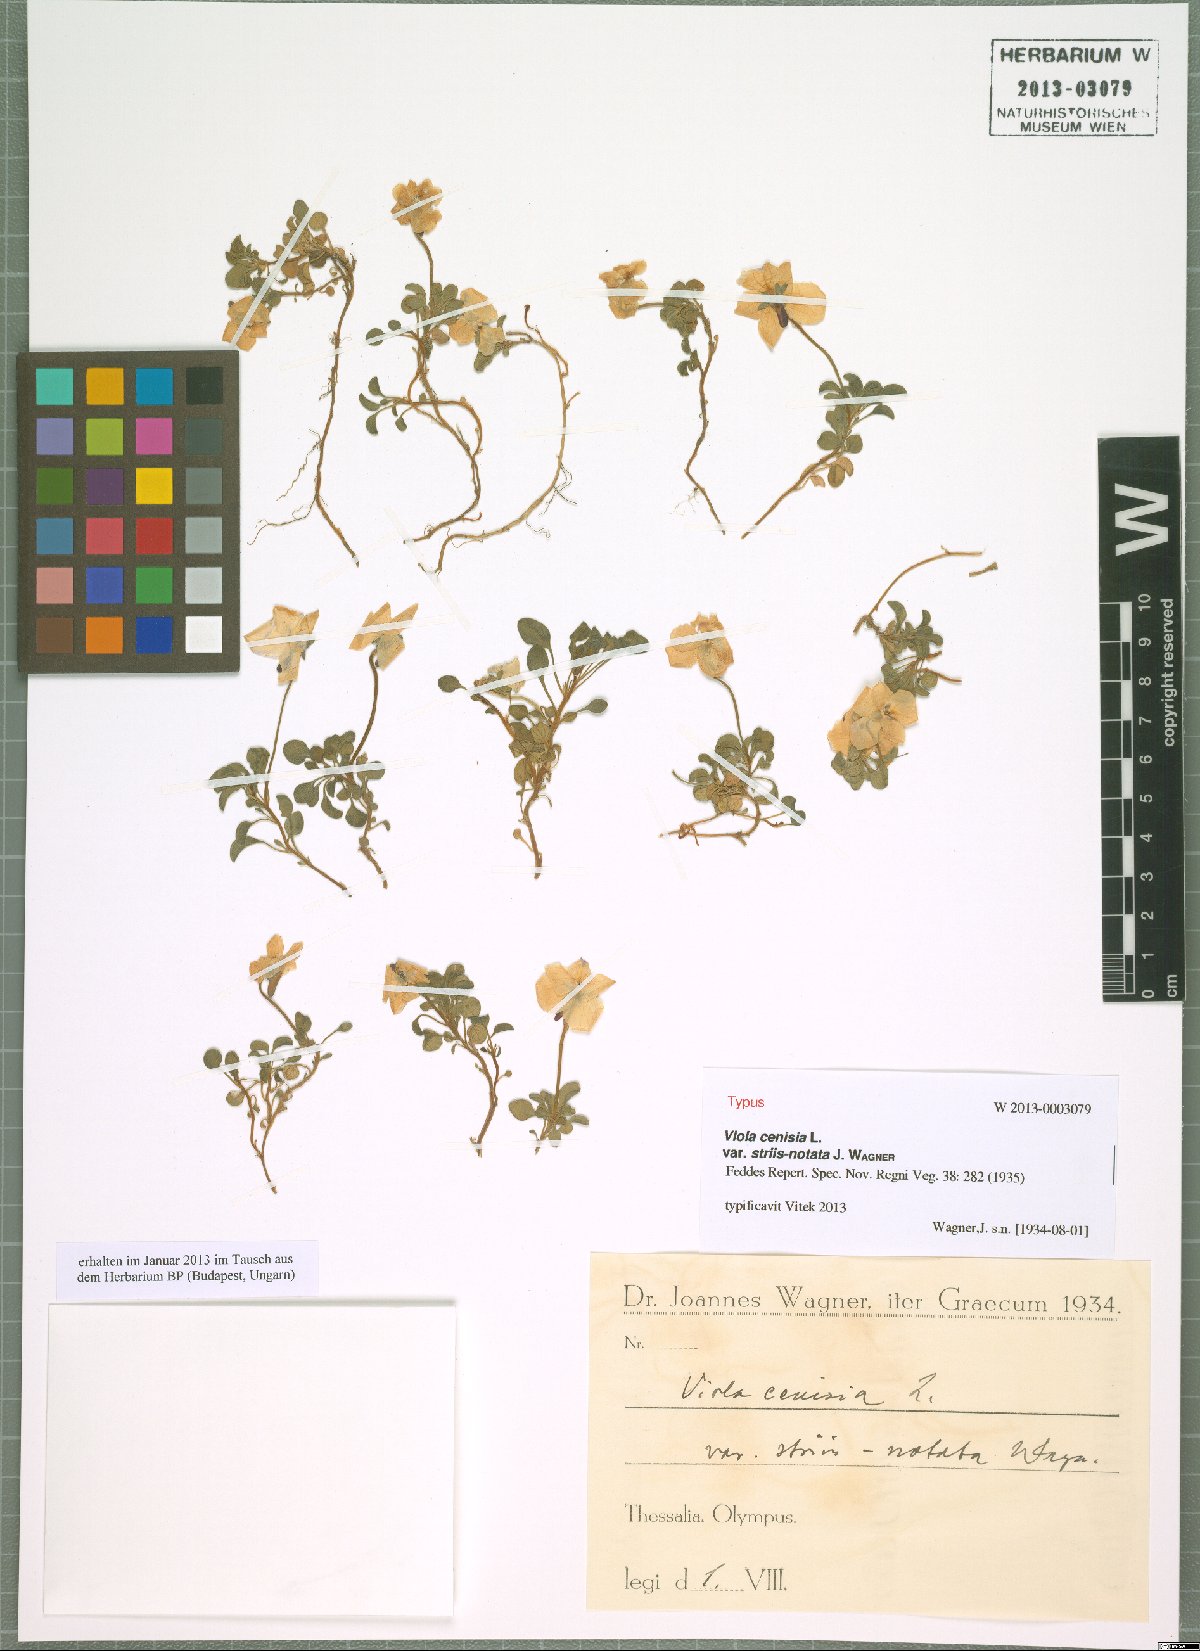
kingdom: Plantae
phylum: Tracheophyta
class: Magnoliopsida
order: Malpighiales
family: Violaceae
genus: Viola
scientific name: Viola striis-notata
